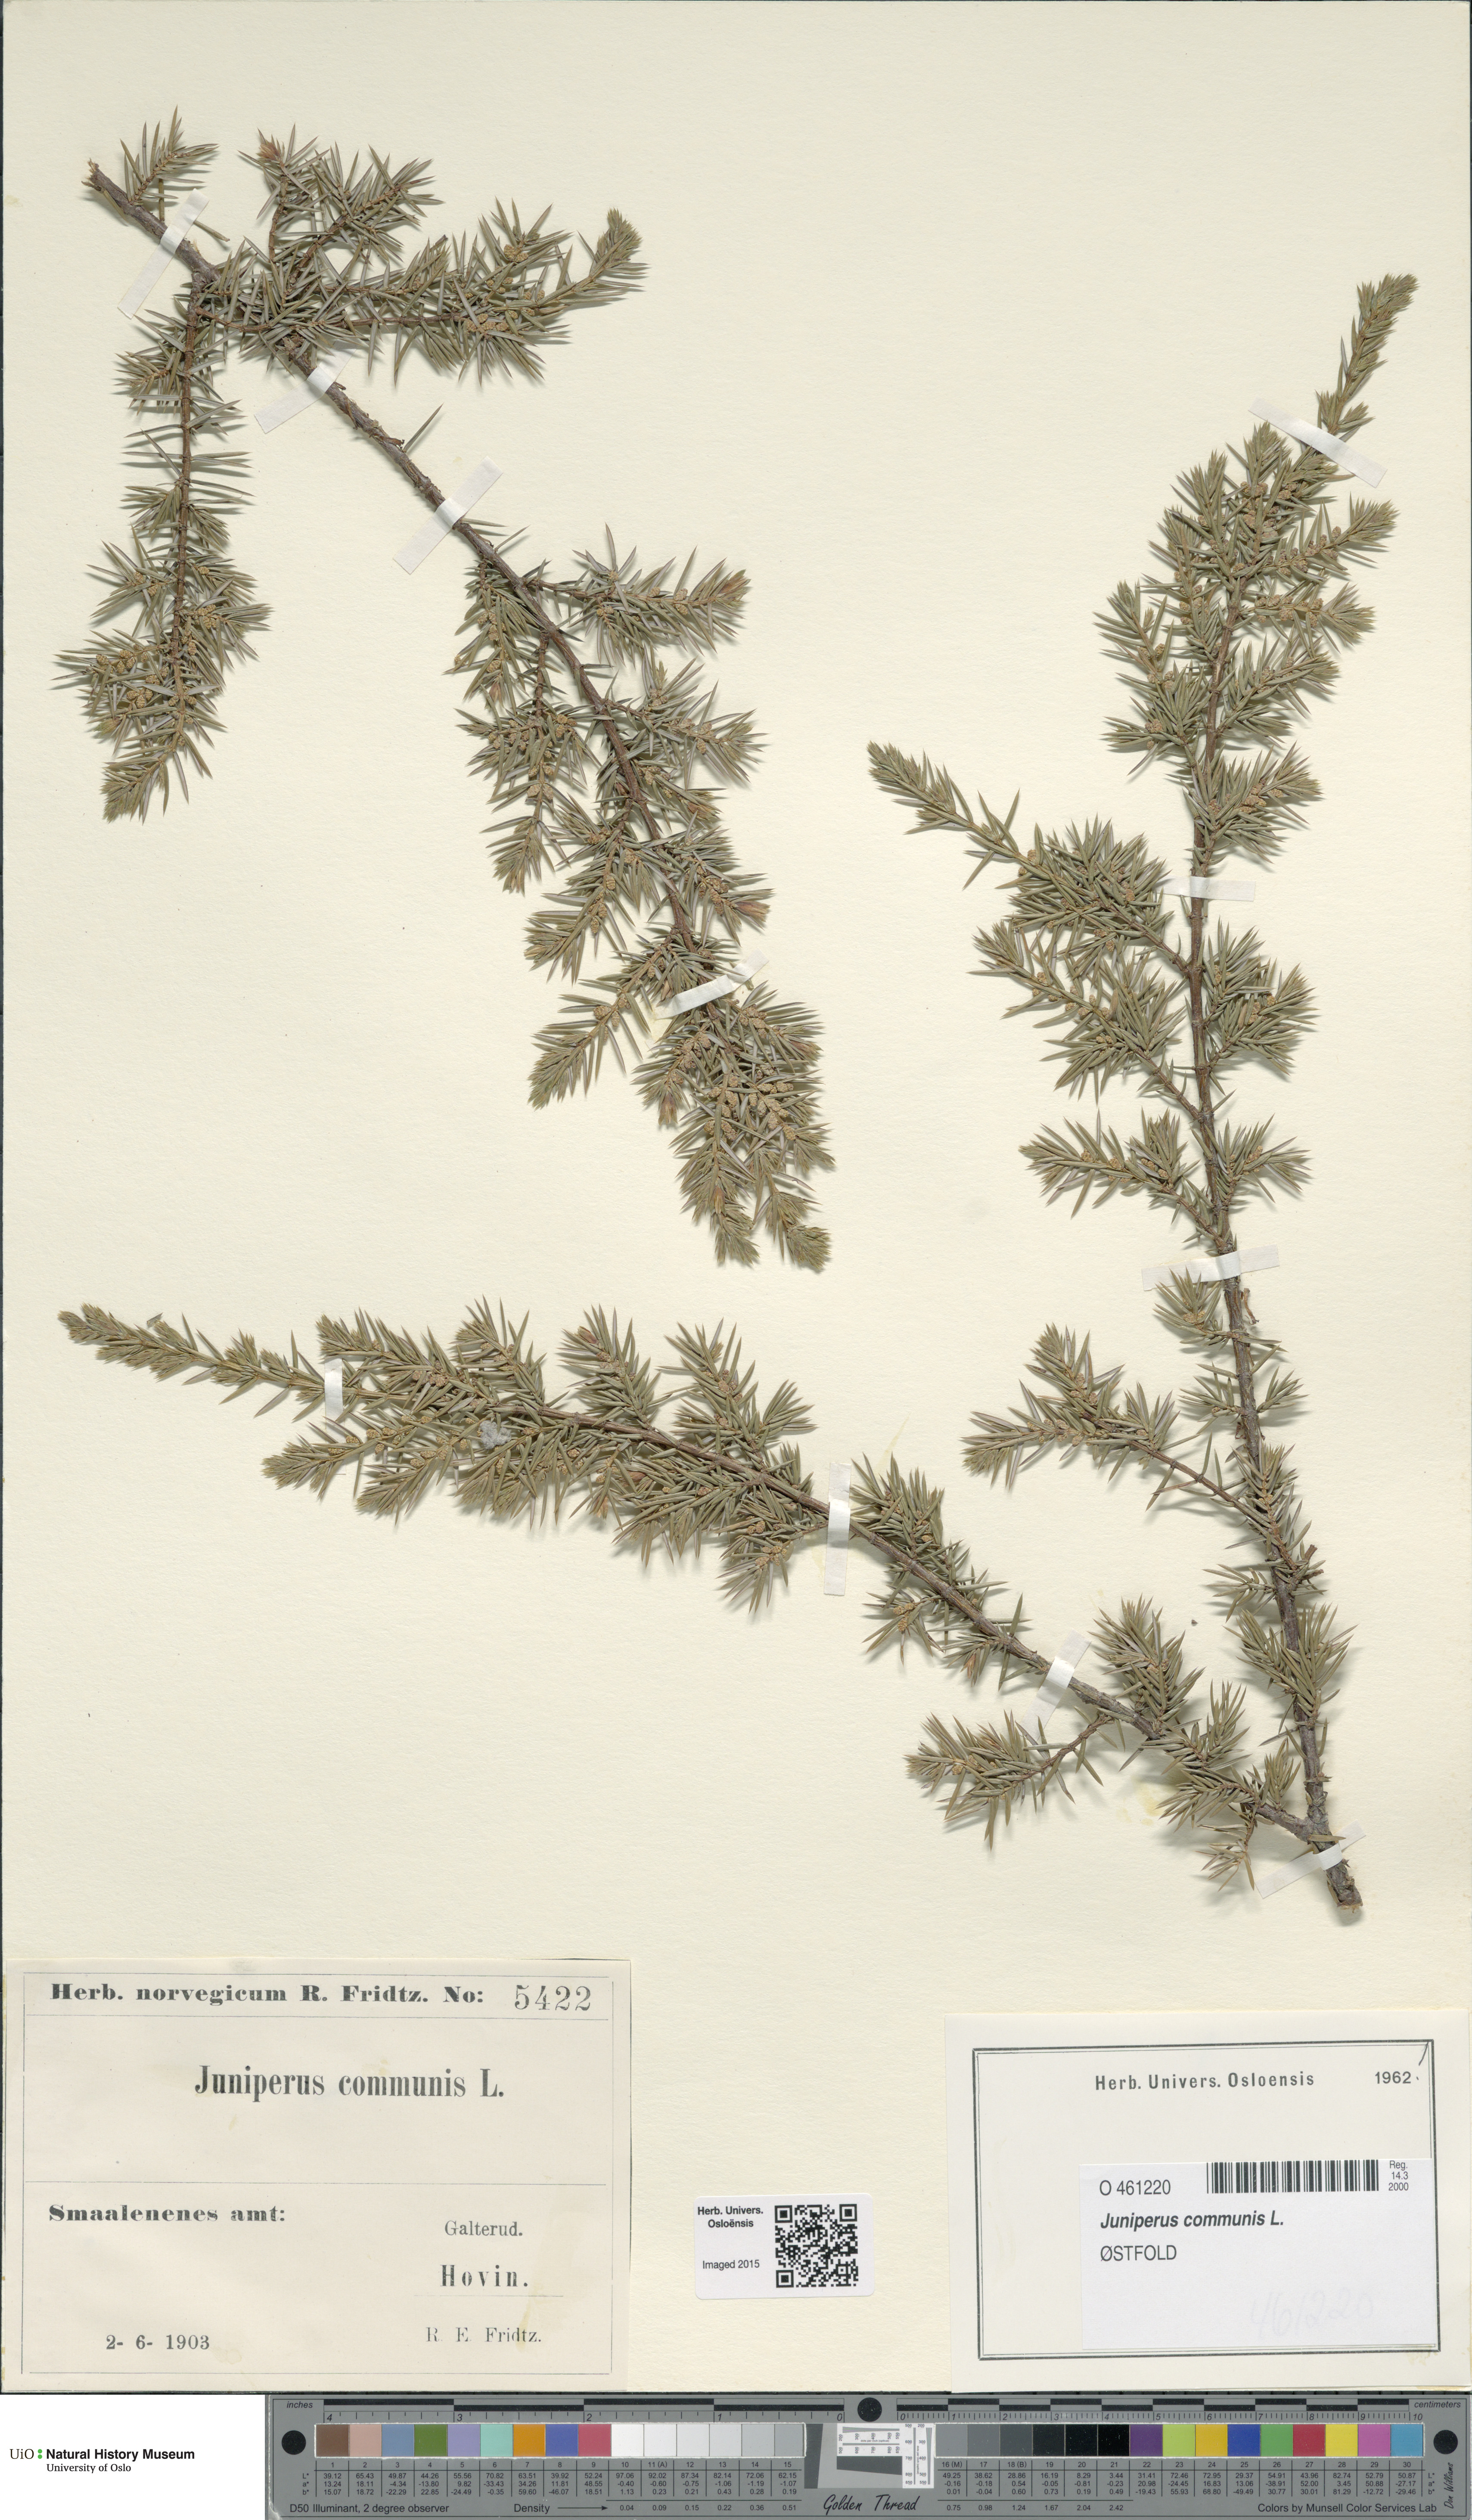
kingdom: Plantae
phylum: Tracheophyta
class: Pinopsida
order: Pinales
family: Cupressaceae
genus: Juniperus
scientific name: Juniperus communis
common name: Common juniper
